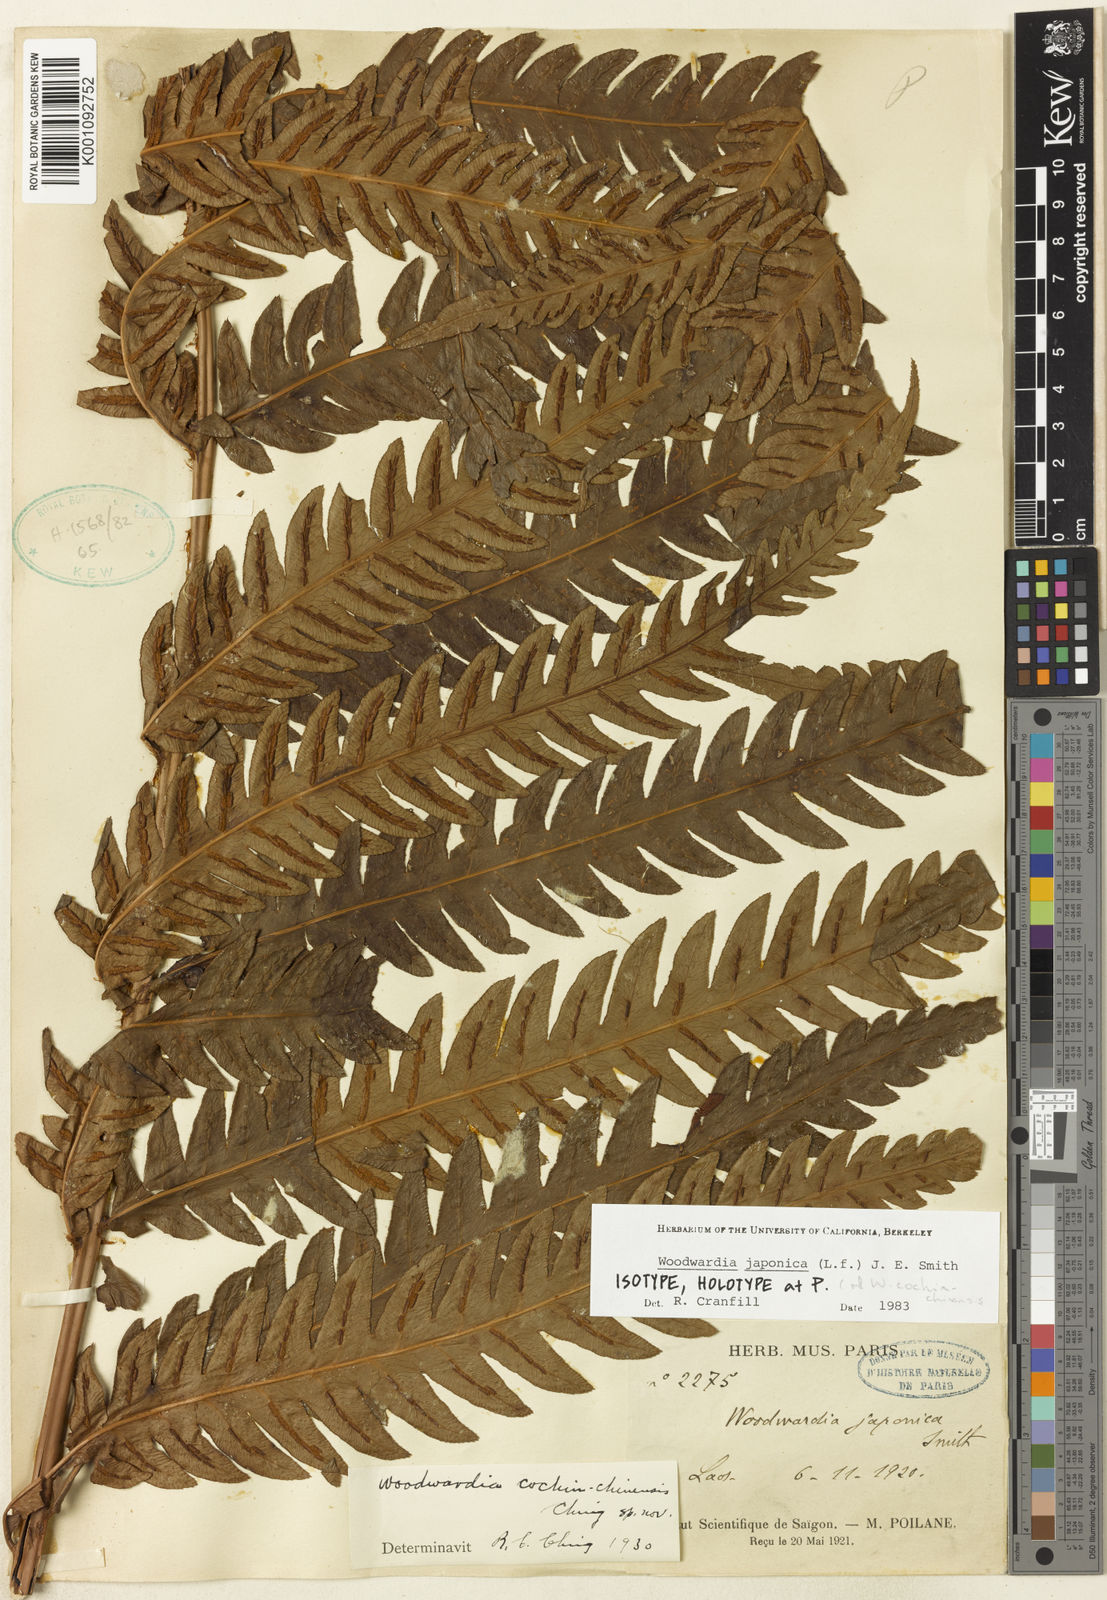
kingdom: Plantae
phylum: Tracheophyta
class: Polypodiopsida
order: Polypodiales
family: Blechnaceae
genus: Woodwardia
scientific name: Woodwardia japonica
